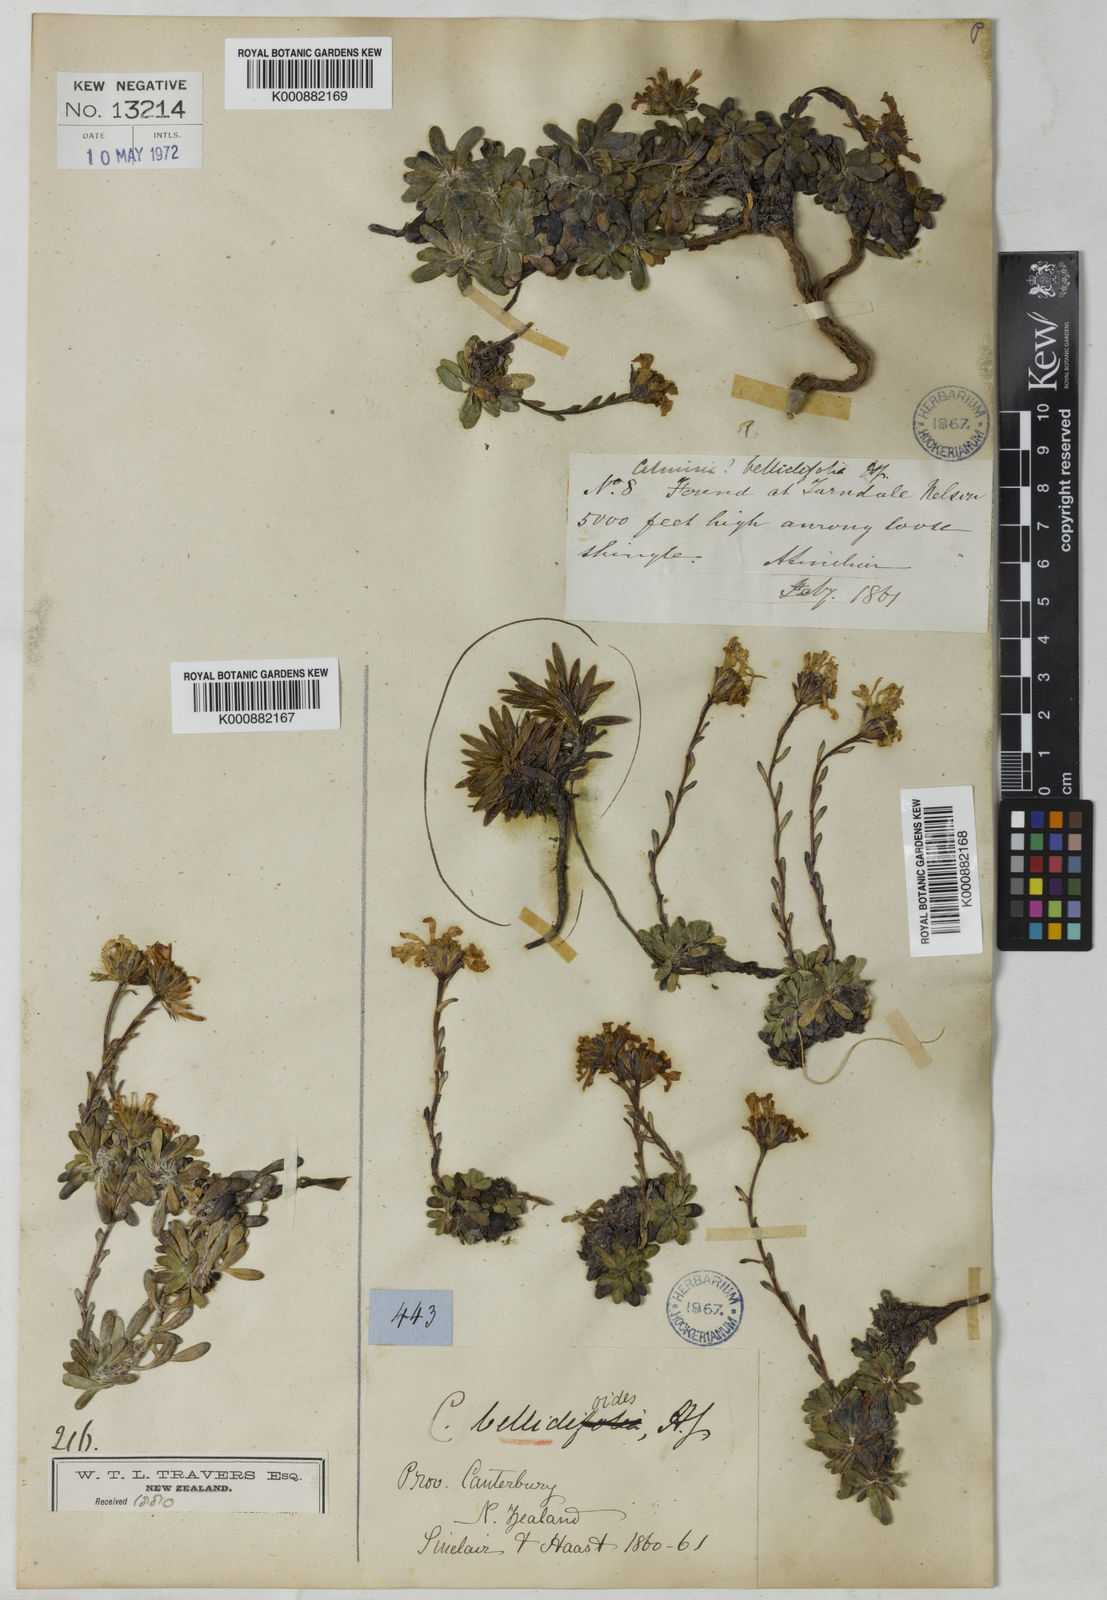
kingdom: Plantae
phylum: Tracheophyta
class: Magnoliopsida
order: Asterales
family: Asteraceae
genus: Celmisia
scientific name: Celmisia bellidioides
